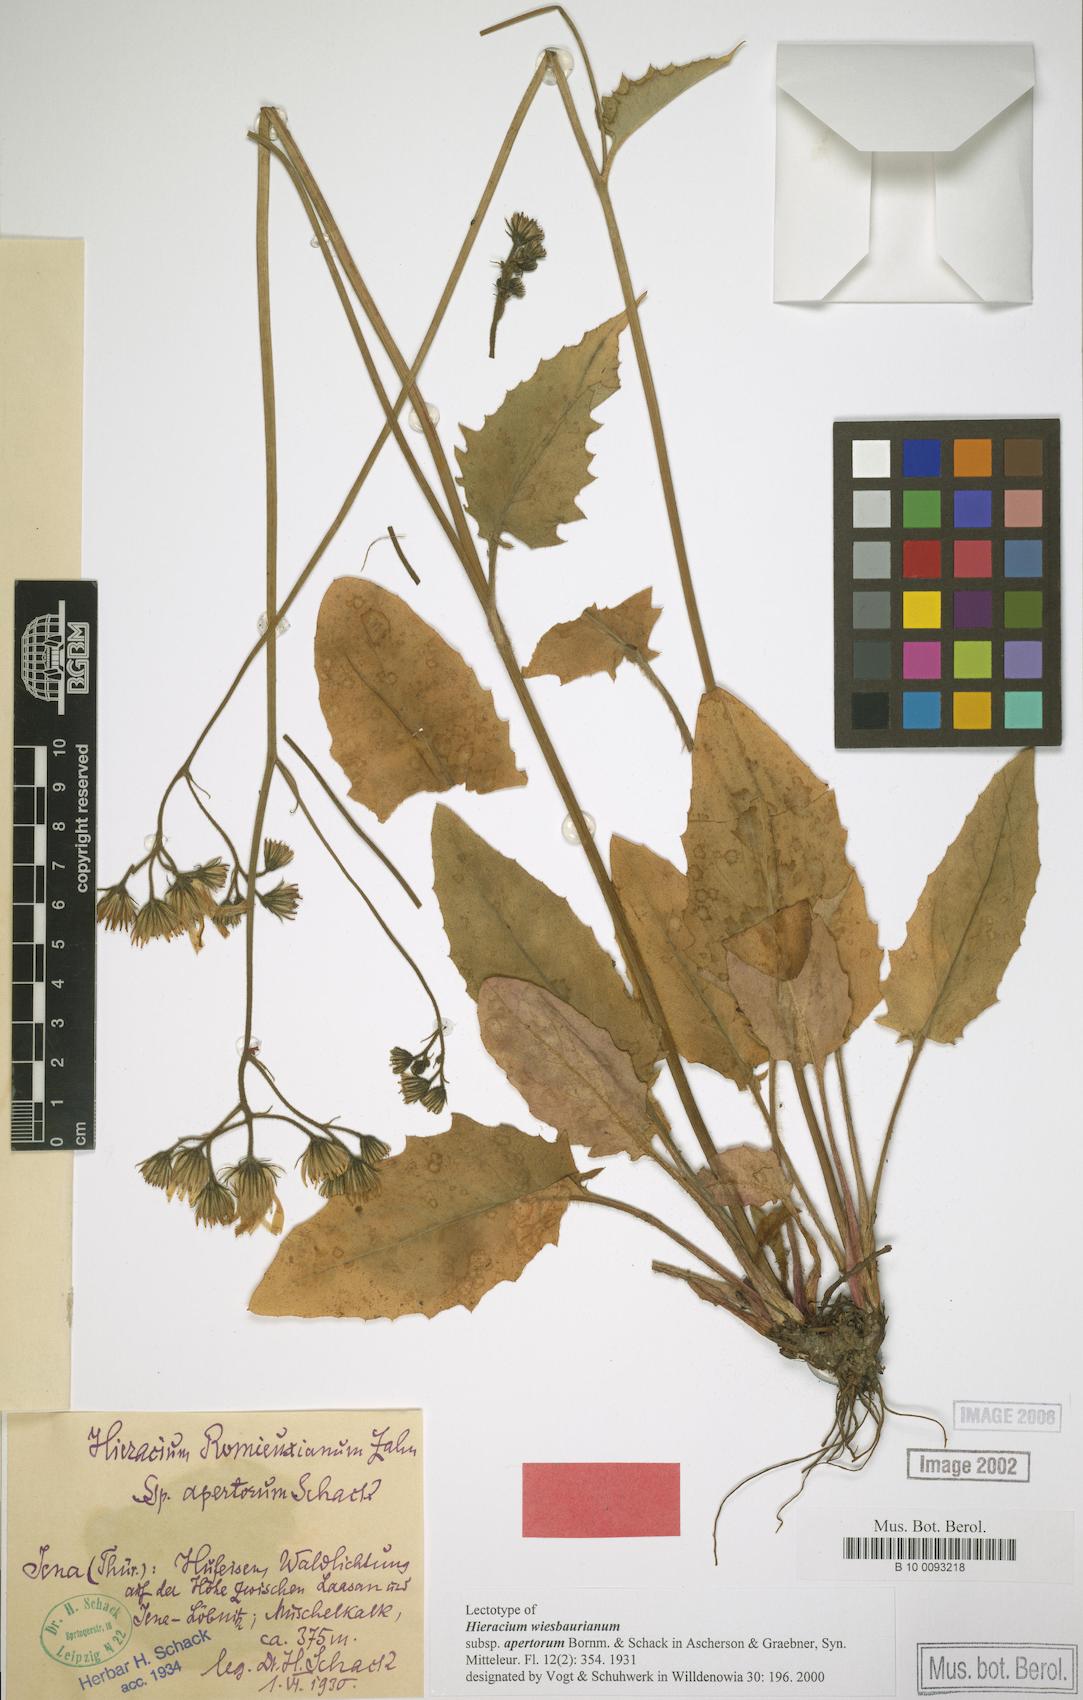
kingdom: Plantae
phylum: Tracheophyta
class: Magnoliopsida
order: Asterales
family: Asteraceae
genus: Hieracium
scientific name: Hieracium hypochoeroides
